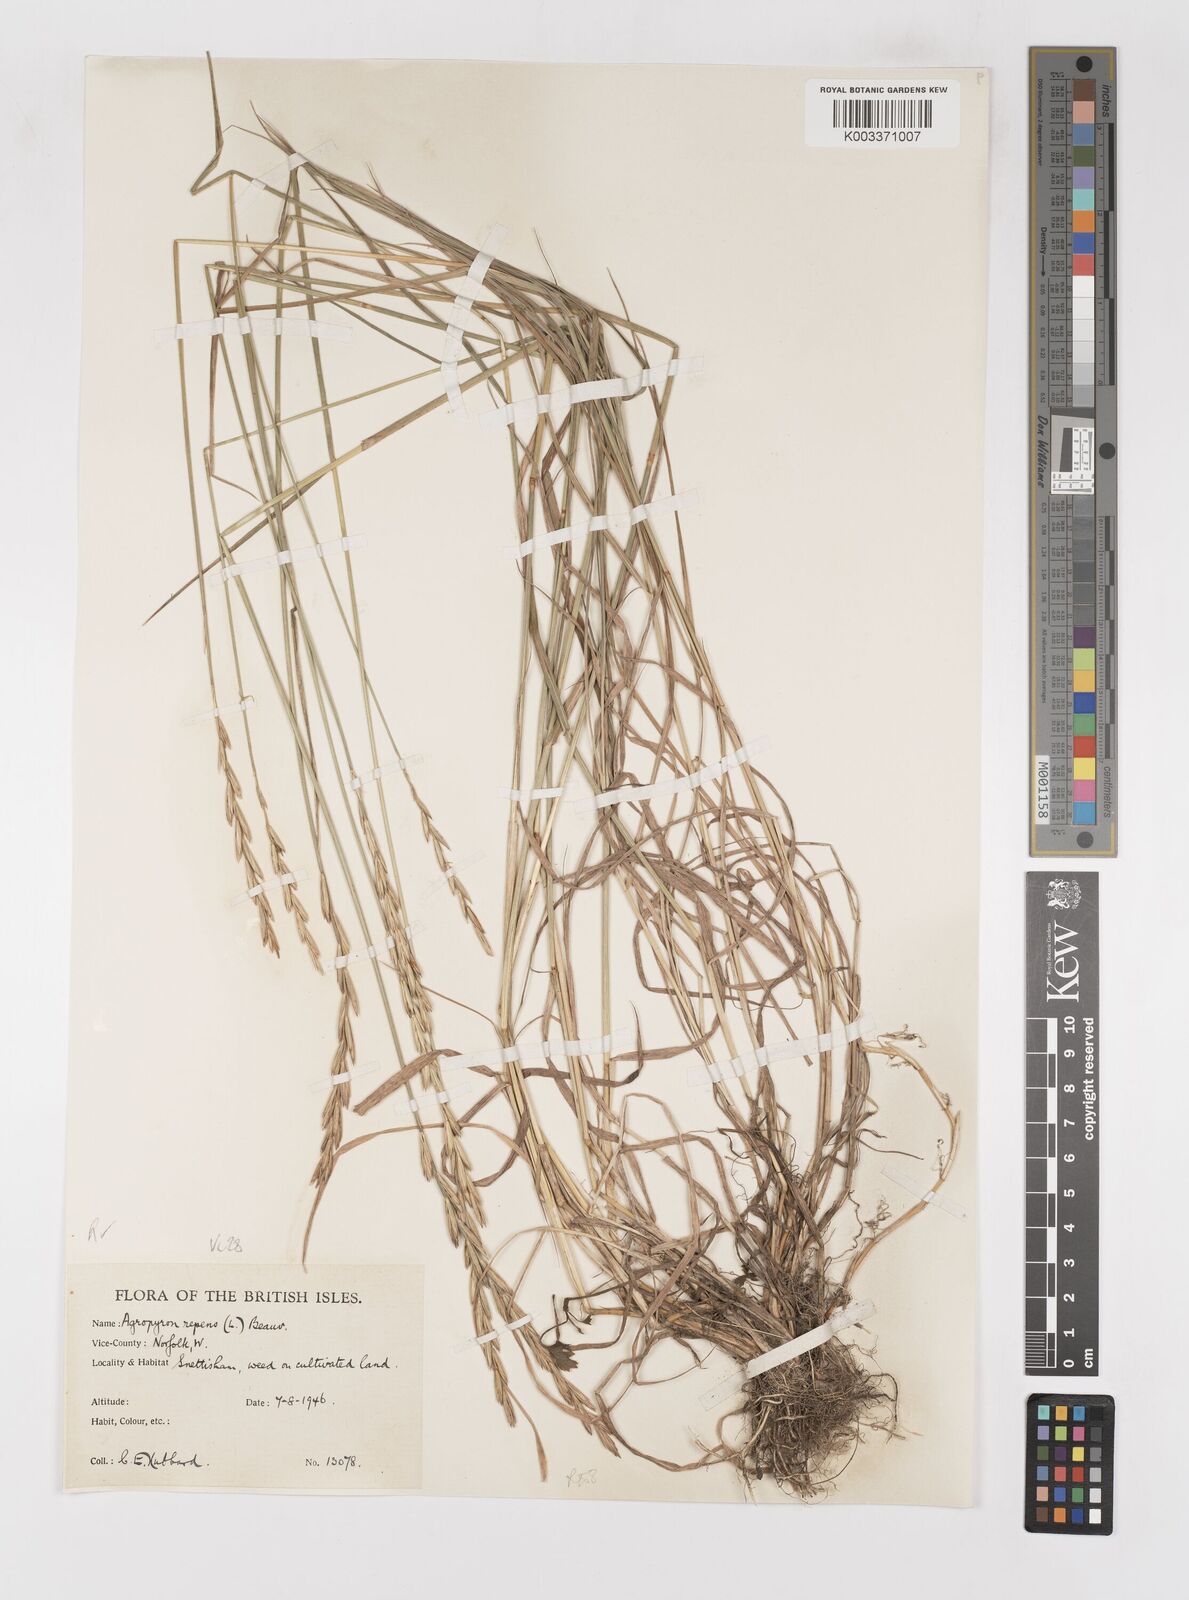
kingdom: Plantae
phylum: Tracheophyta
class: Liliopsida
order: Poales
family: Poaceae
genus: Elymus
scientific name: Elymus repens
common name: Quackgrass
